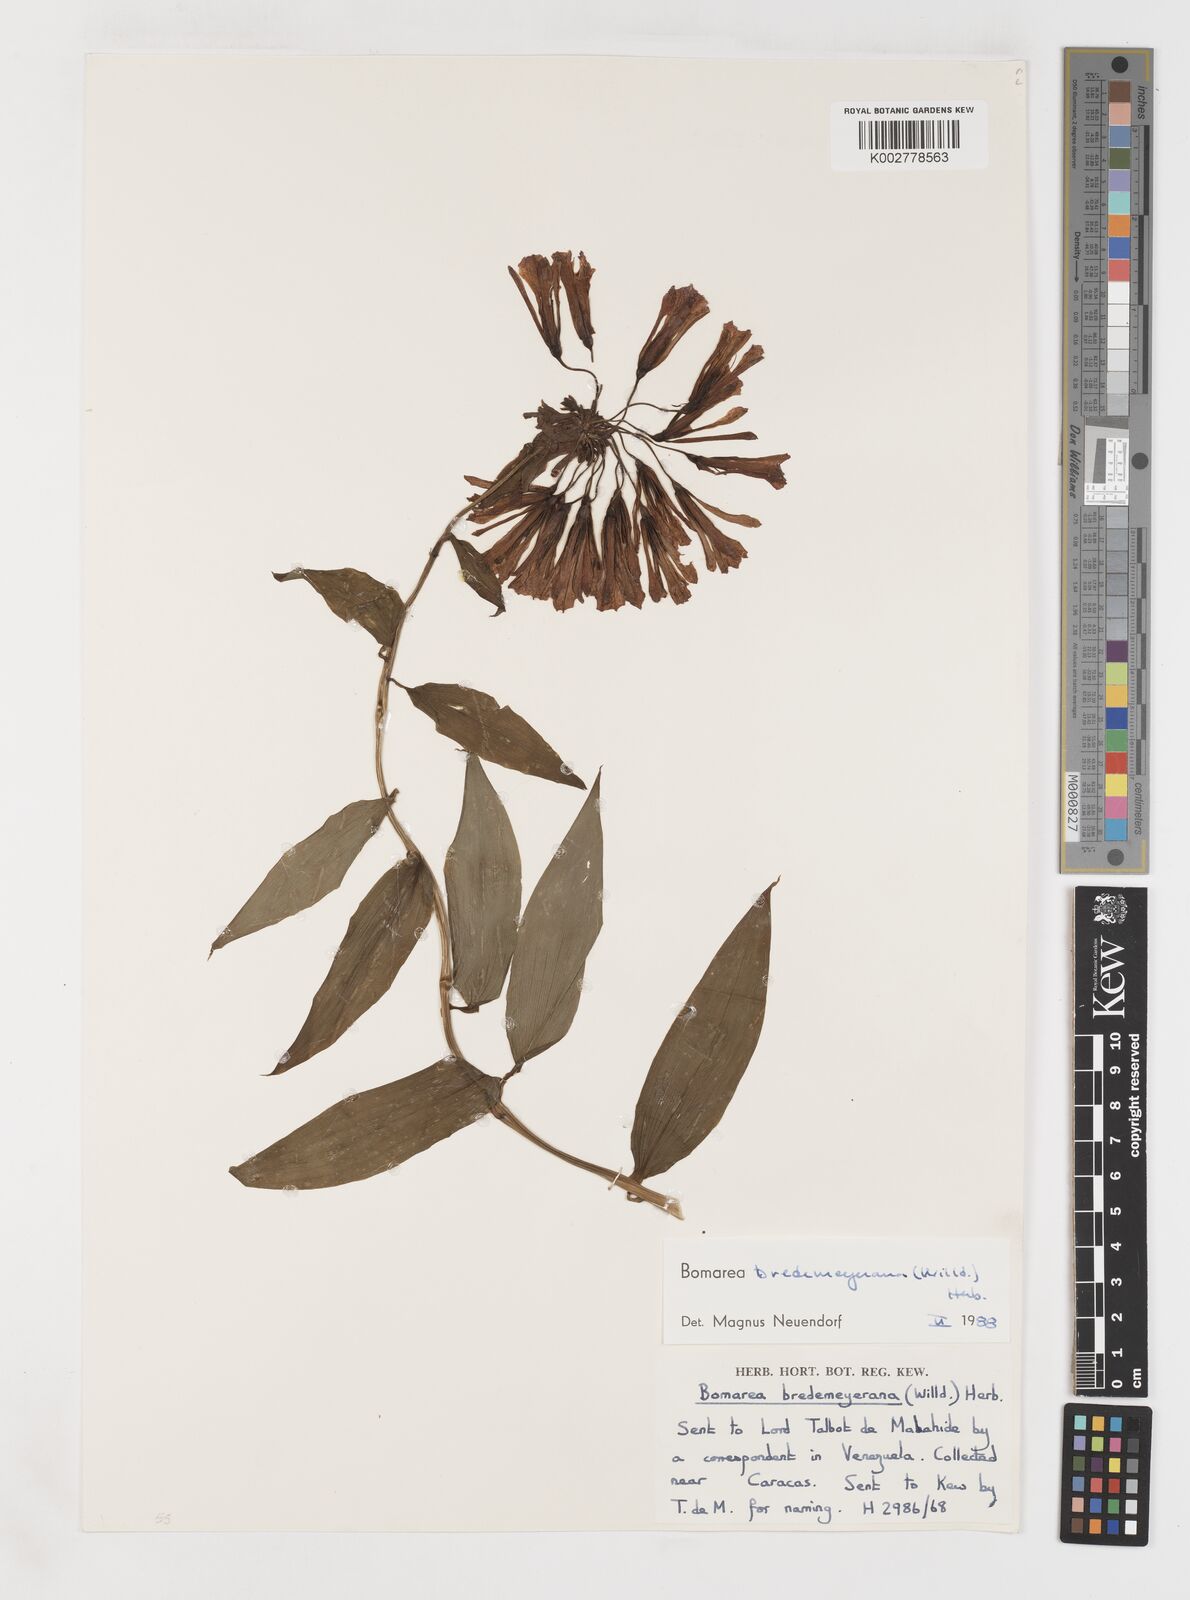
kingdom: Plantae
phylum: Tracheophyta
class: Liliopsida
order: Liliales
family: Alstroemeriaceae
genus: Bomarea
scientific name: Bomarea multiflora
